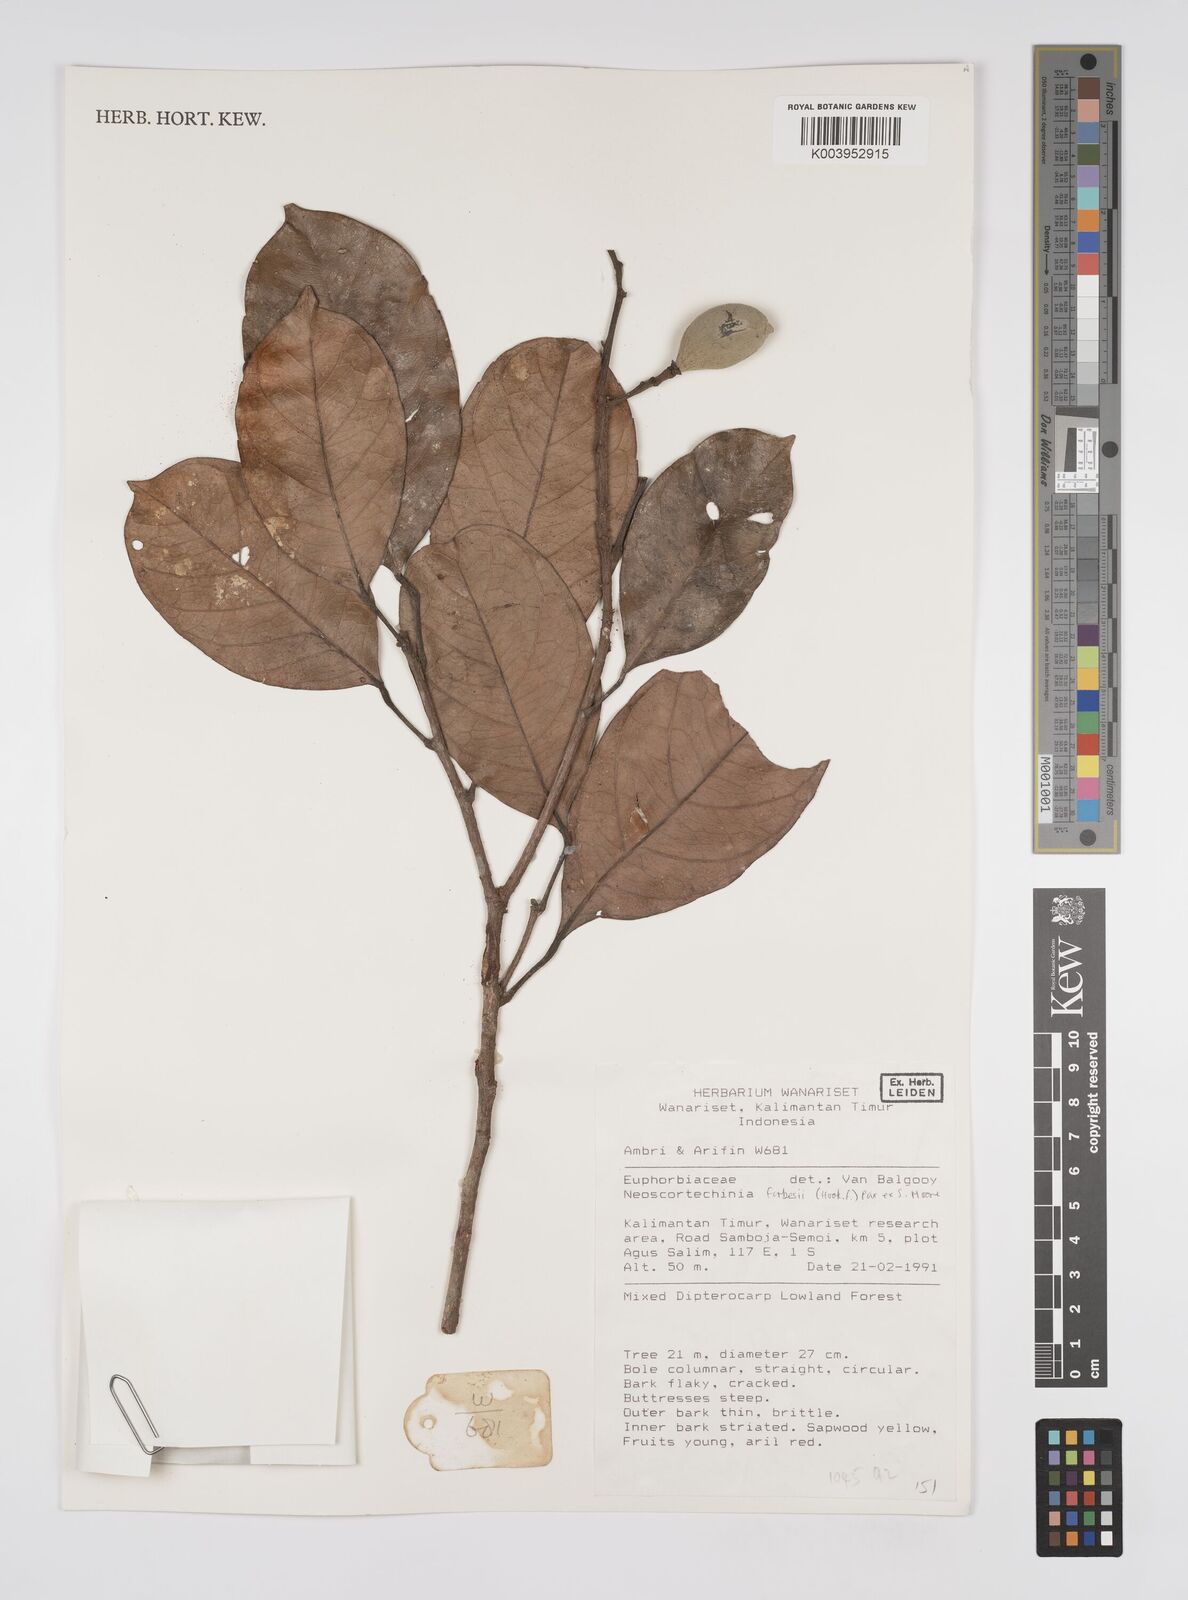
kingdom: Plantae
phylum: Tracheophyta
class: Magnoliopsida
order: Malpighiales
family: Euphorbiaceae
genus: Neoscortechinia
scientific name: Neoscortechinia philippinensis
